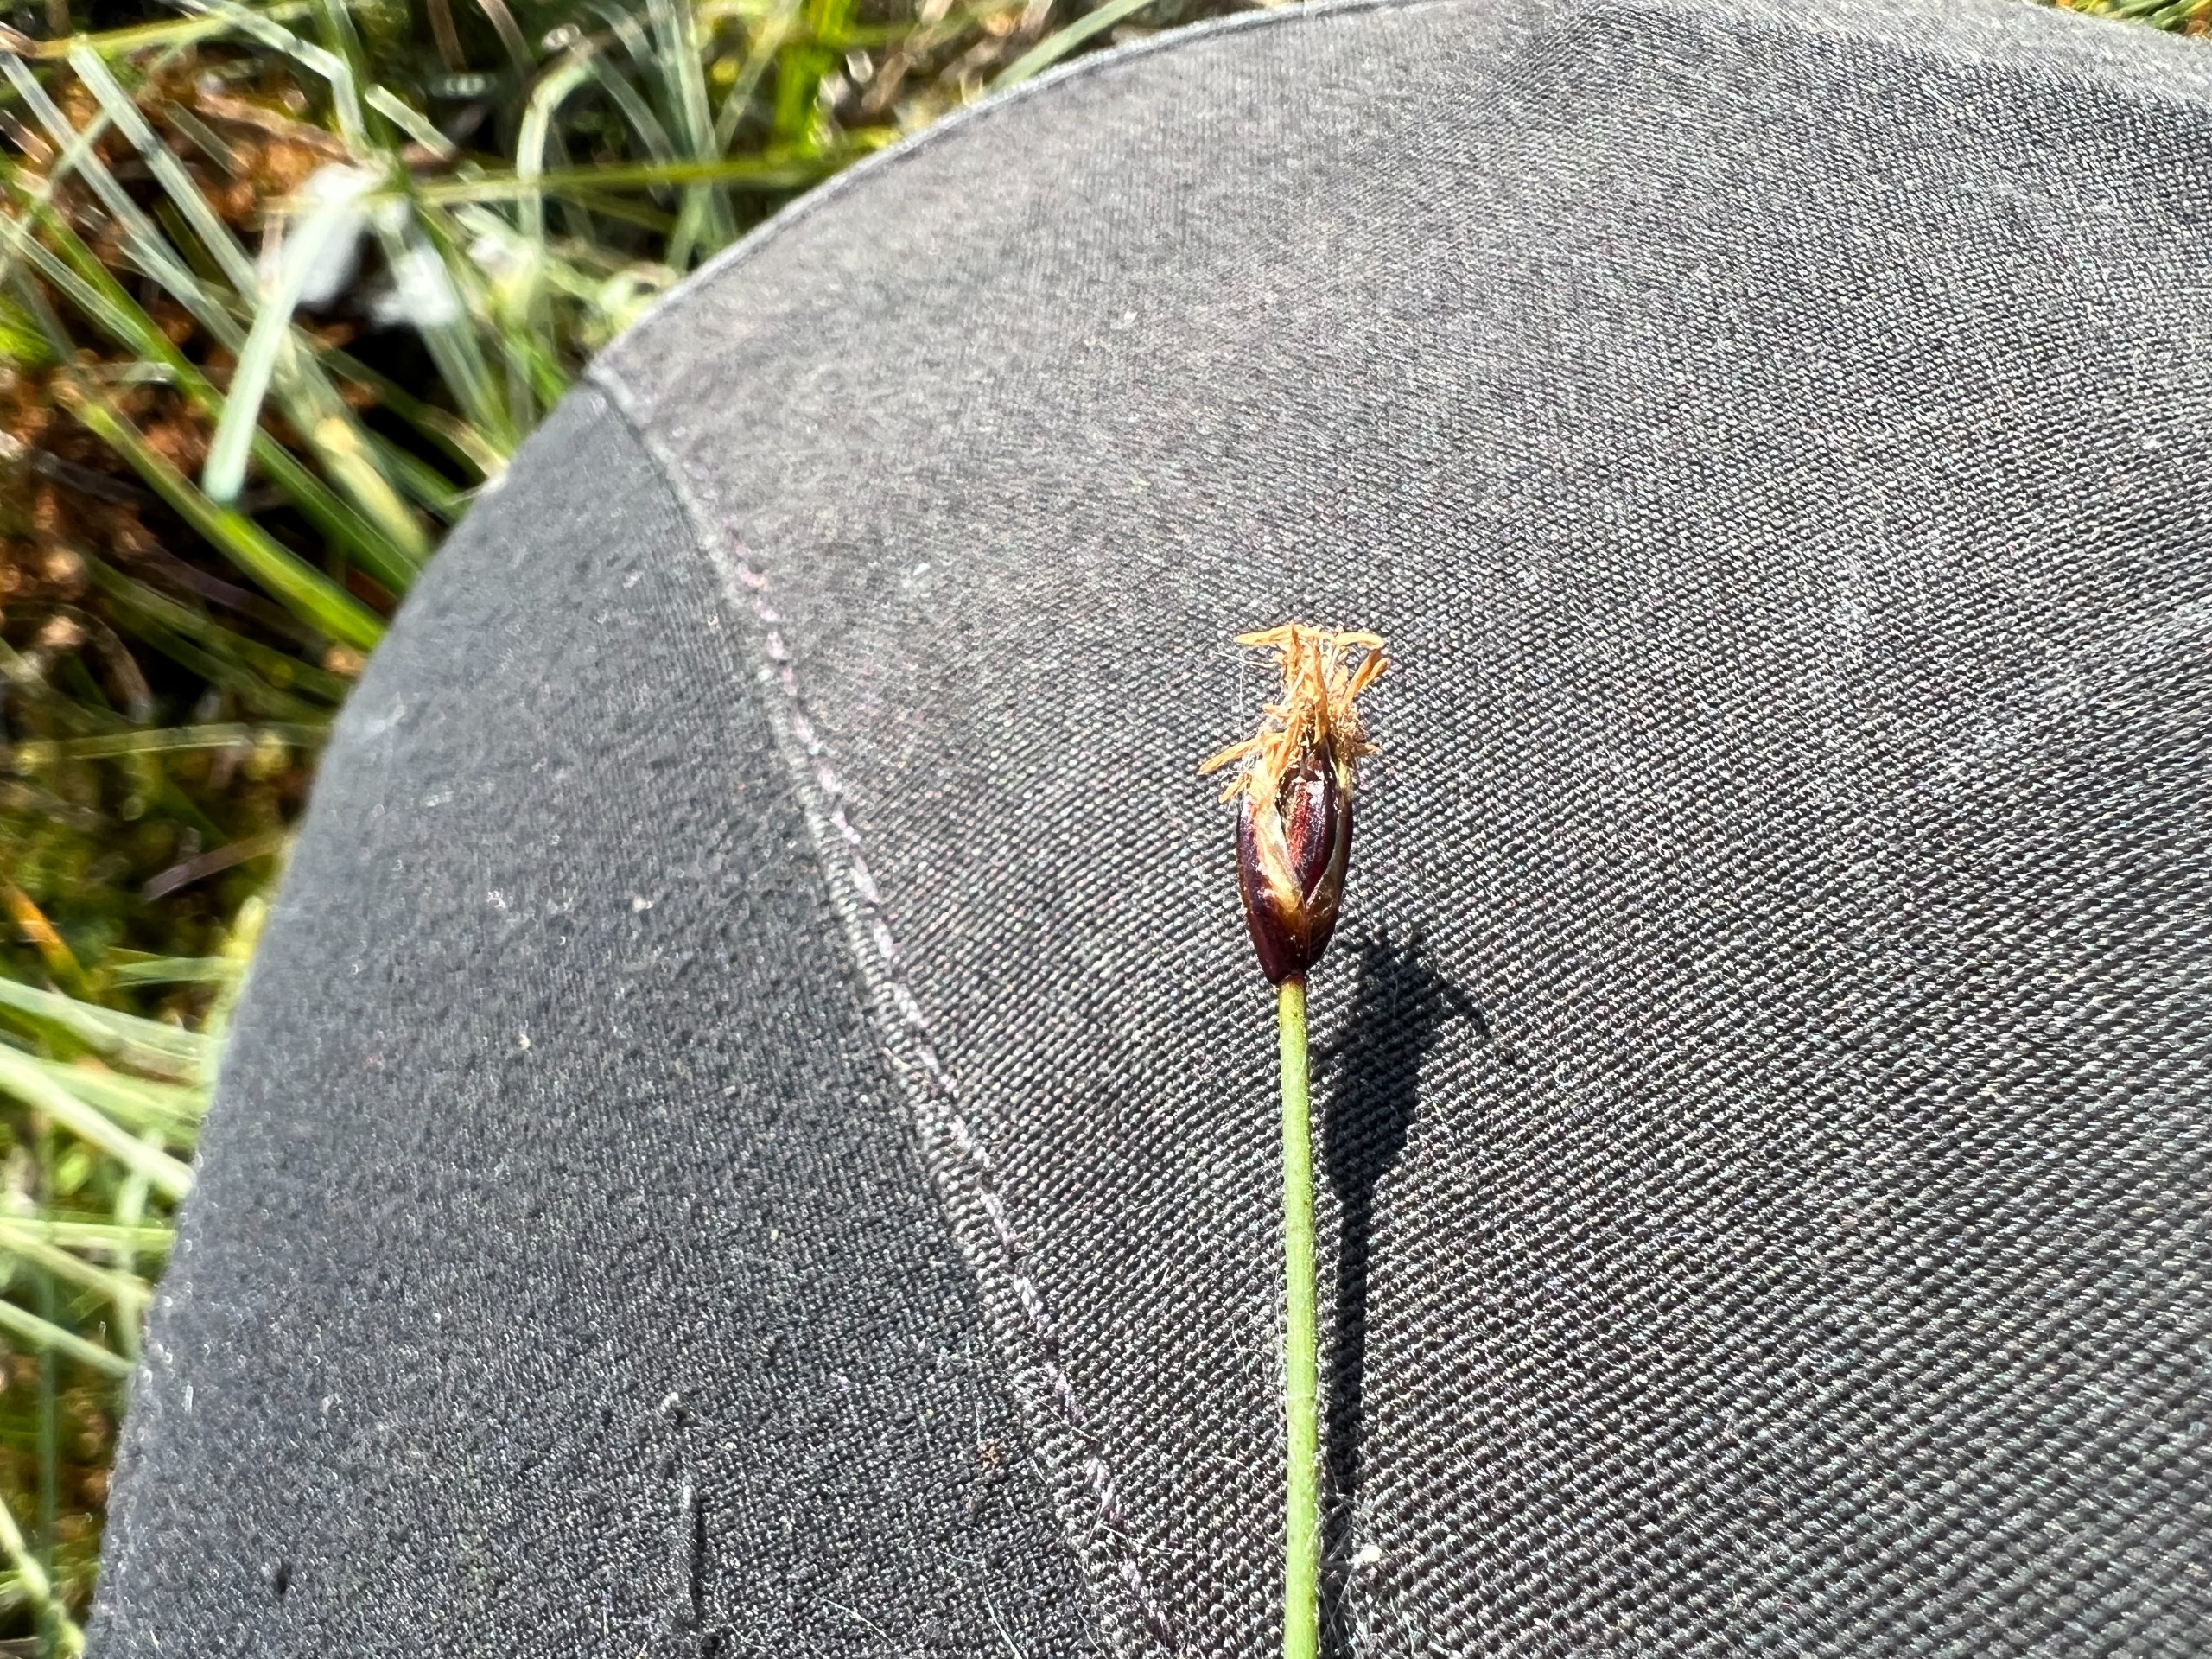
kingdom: Plantae
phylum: Tracheophyta
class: Liliopsida
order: Poales
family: Cyperaceae
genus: Eleocharis
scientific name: Eleocharis quinqueflora
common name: Fåblomstret kogleaks
